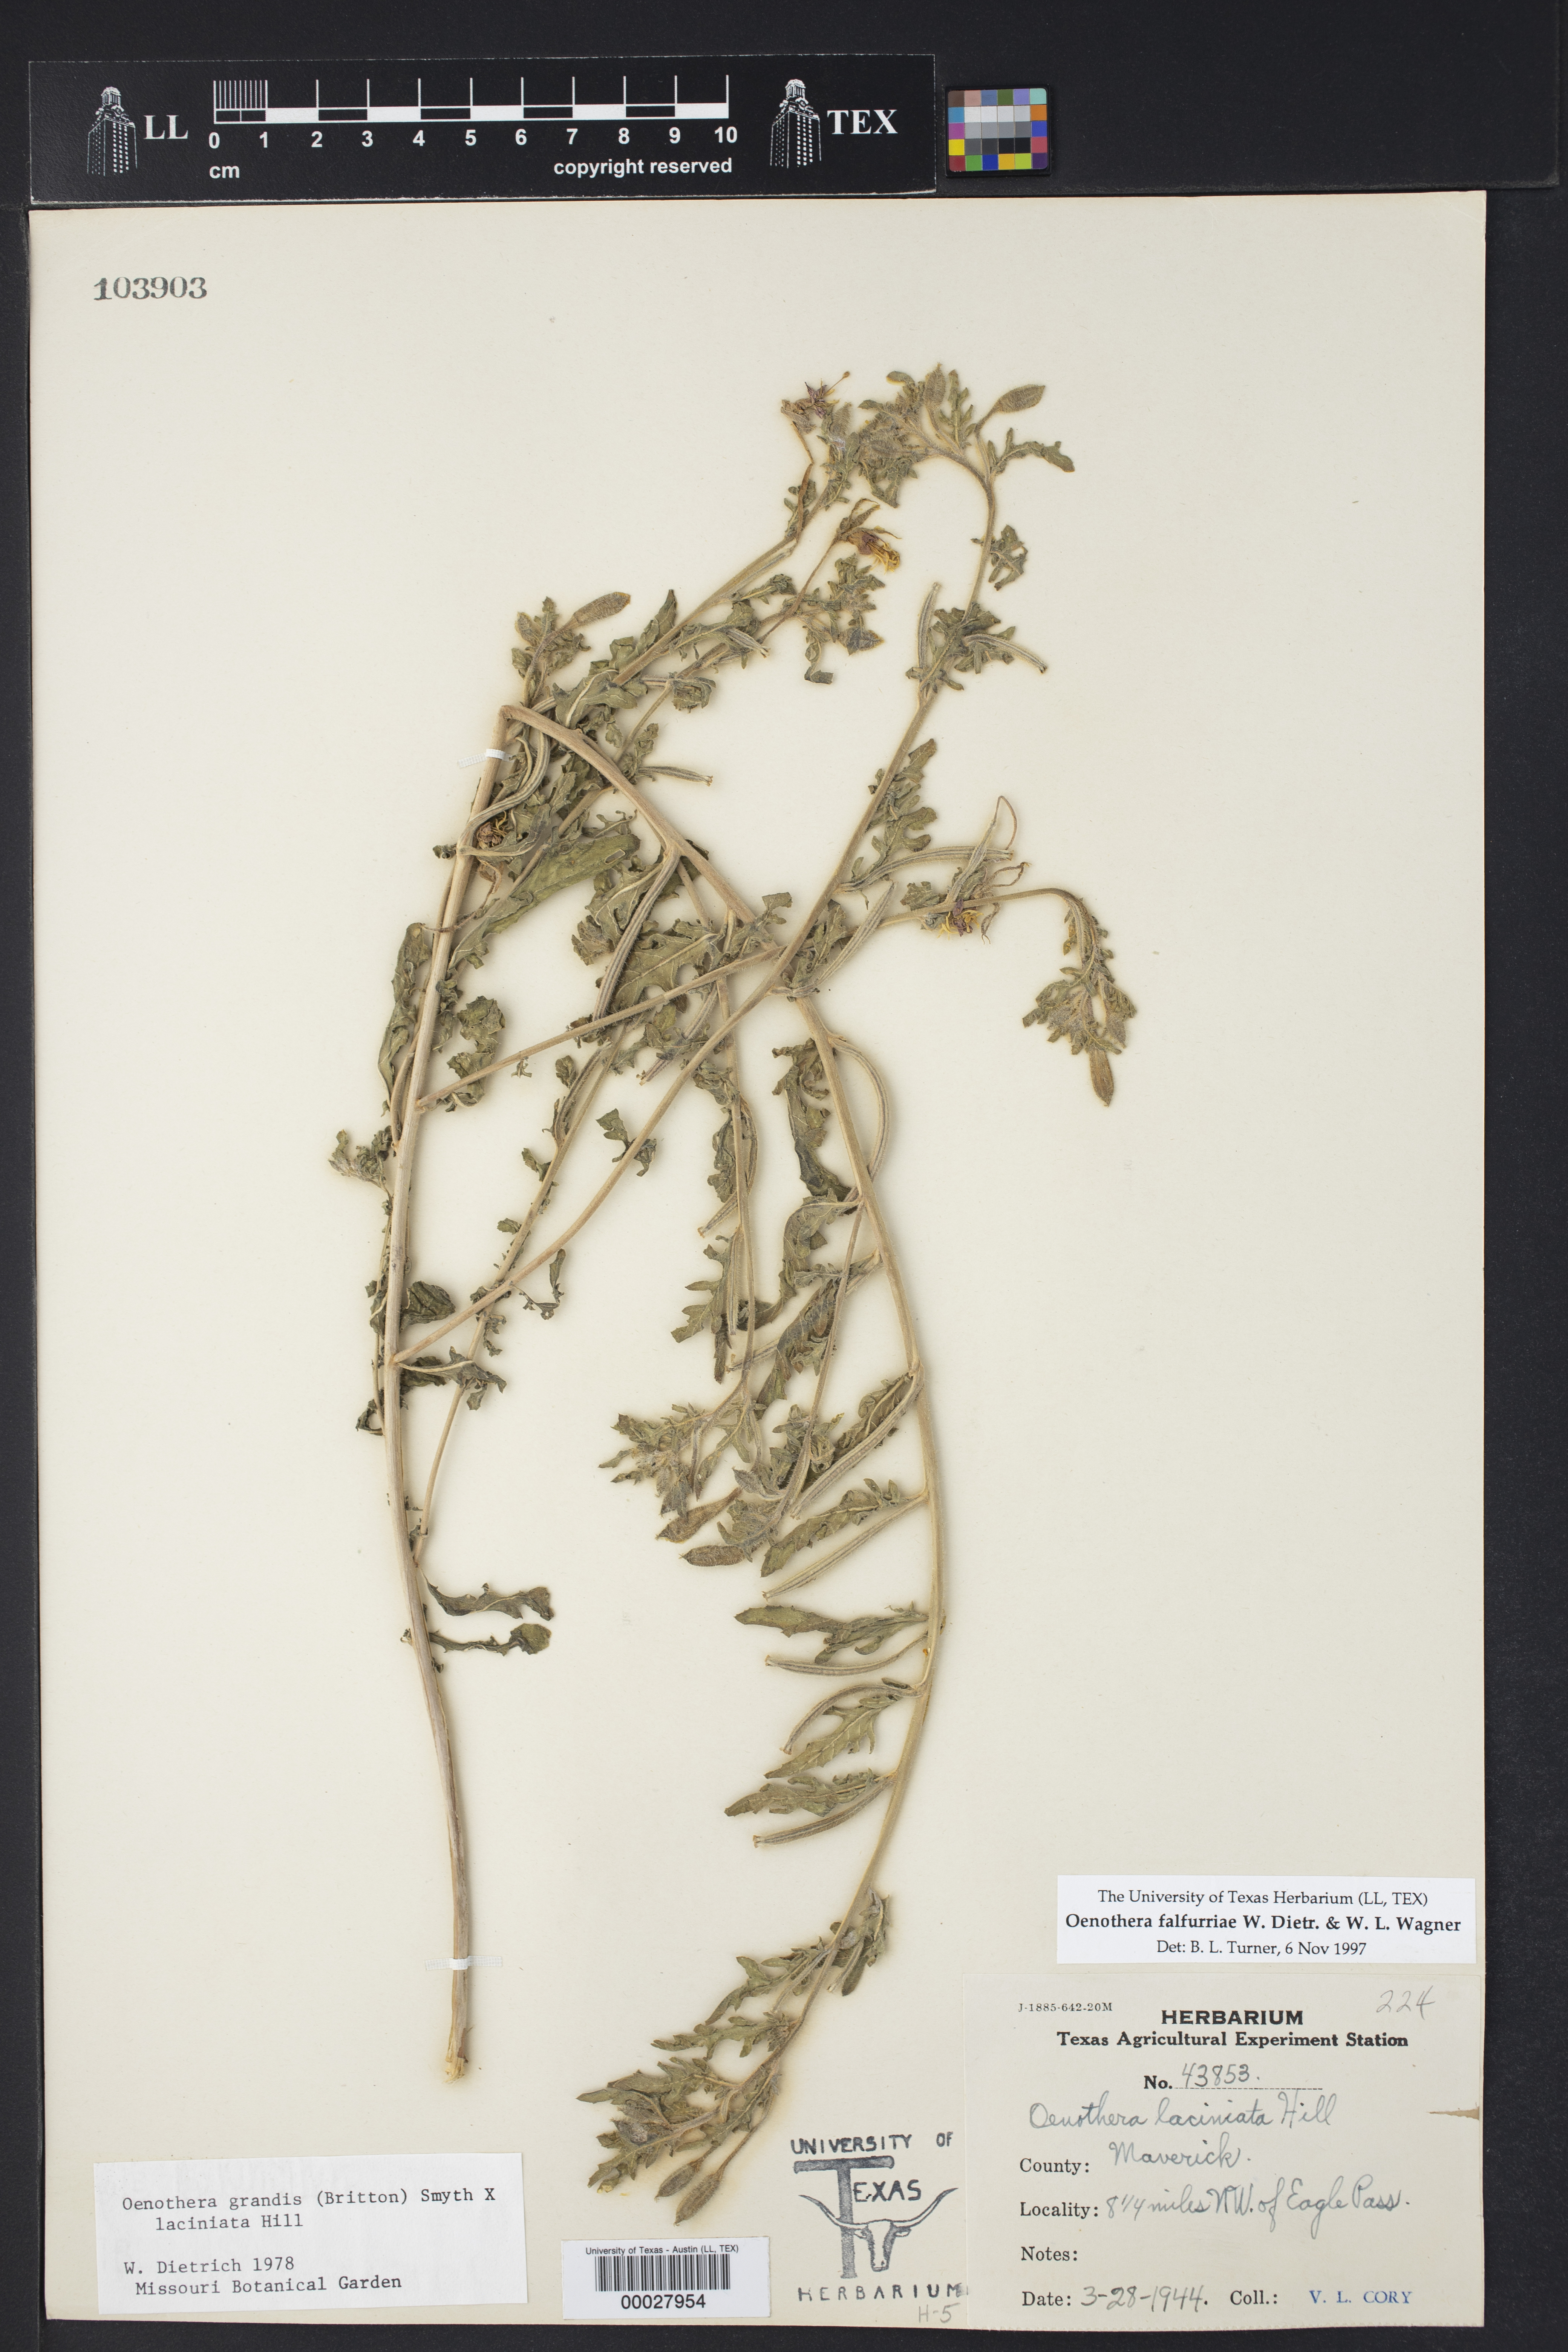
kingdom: Plantae
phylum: Tracheophyta
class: Magnoliopsida
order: Myrtales
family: Onagraceae
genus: Oenothera
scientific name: Oenothera falfurriae
